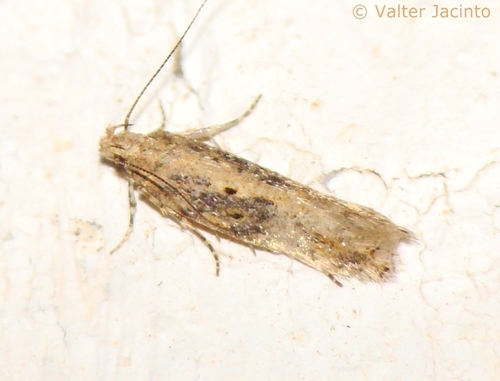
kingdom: Animalia
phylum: Arthropoda
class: Insecta
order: Lepidoptera
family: Gelechiidae
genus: Scrobipalpa
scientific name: Scrobipalpa ocellatella
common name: Beet moth
